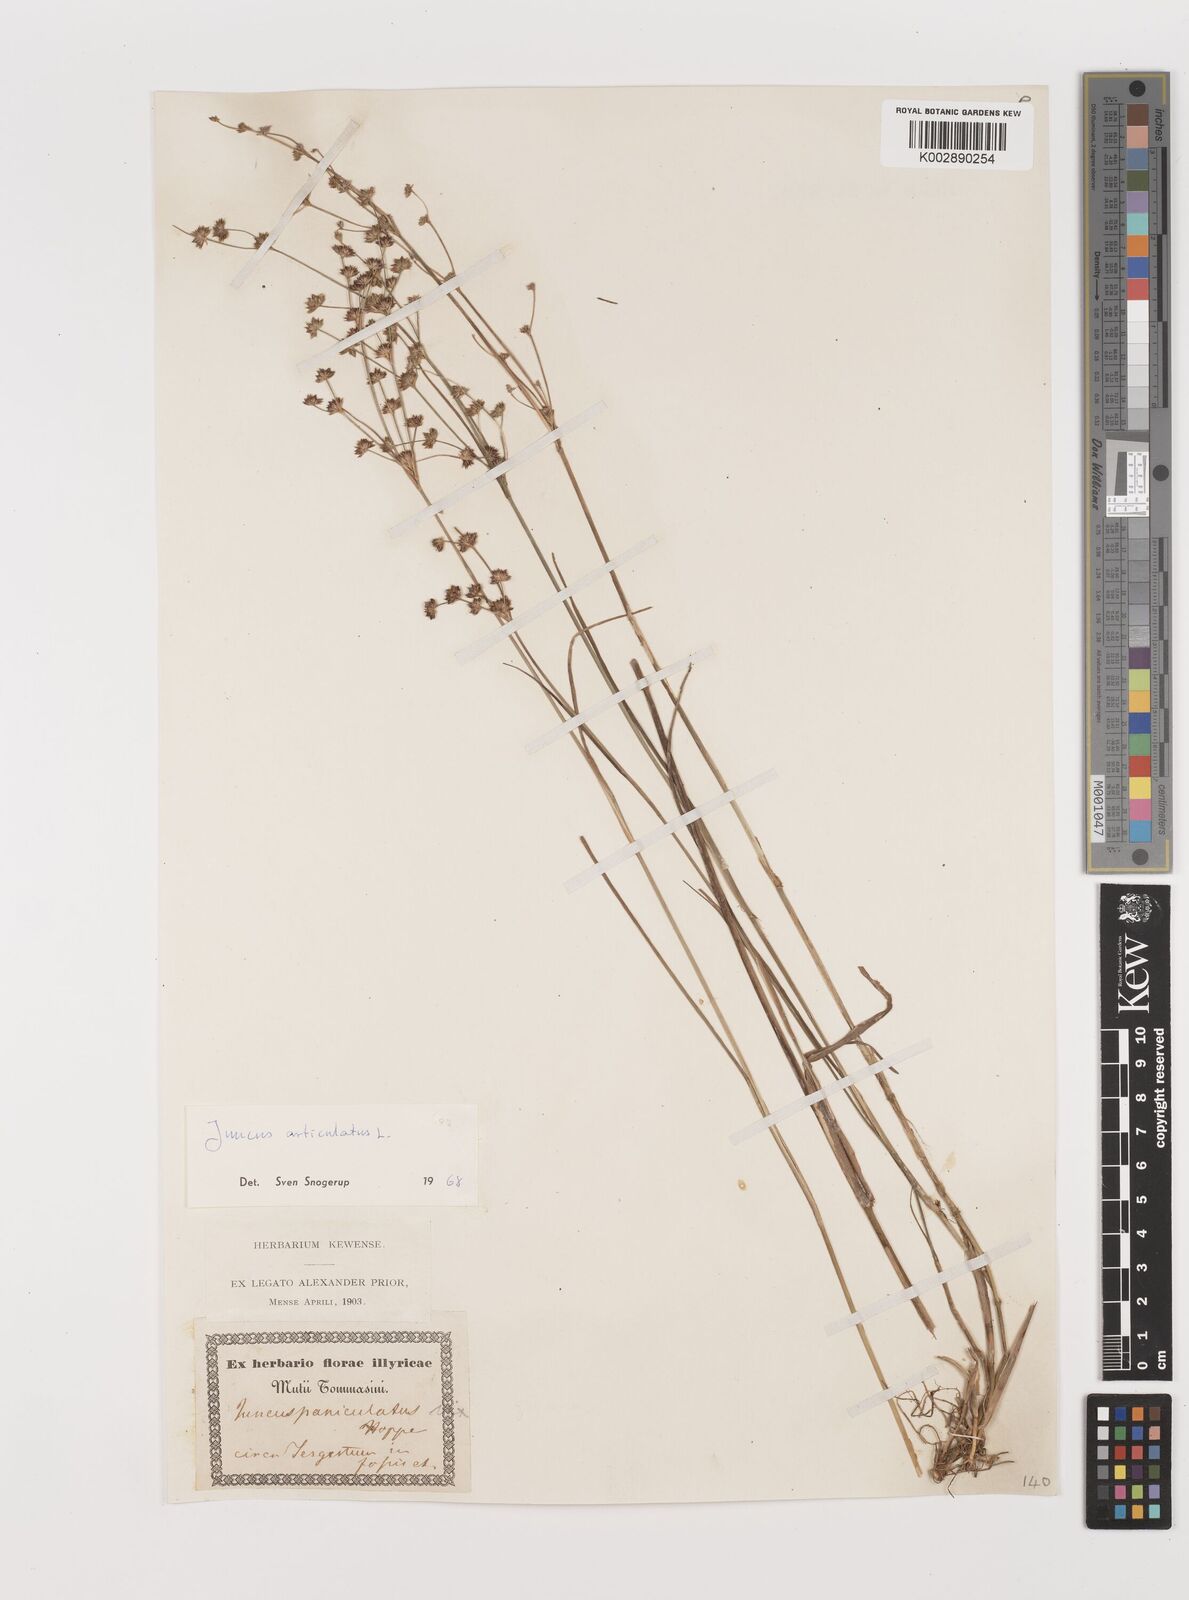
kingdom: Plantae
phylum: Tracheophyta
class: Liliopsida
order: Poales
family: Juncaceae
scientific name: Juncaceae
